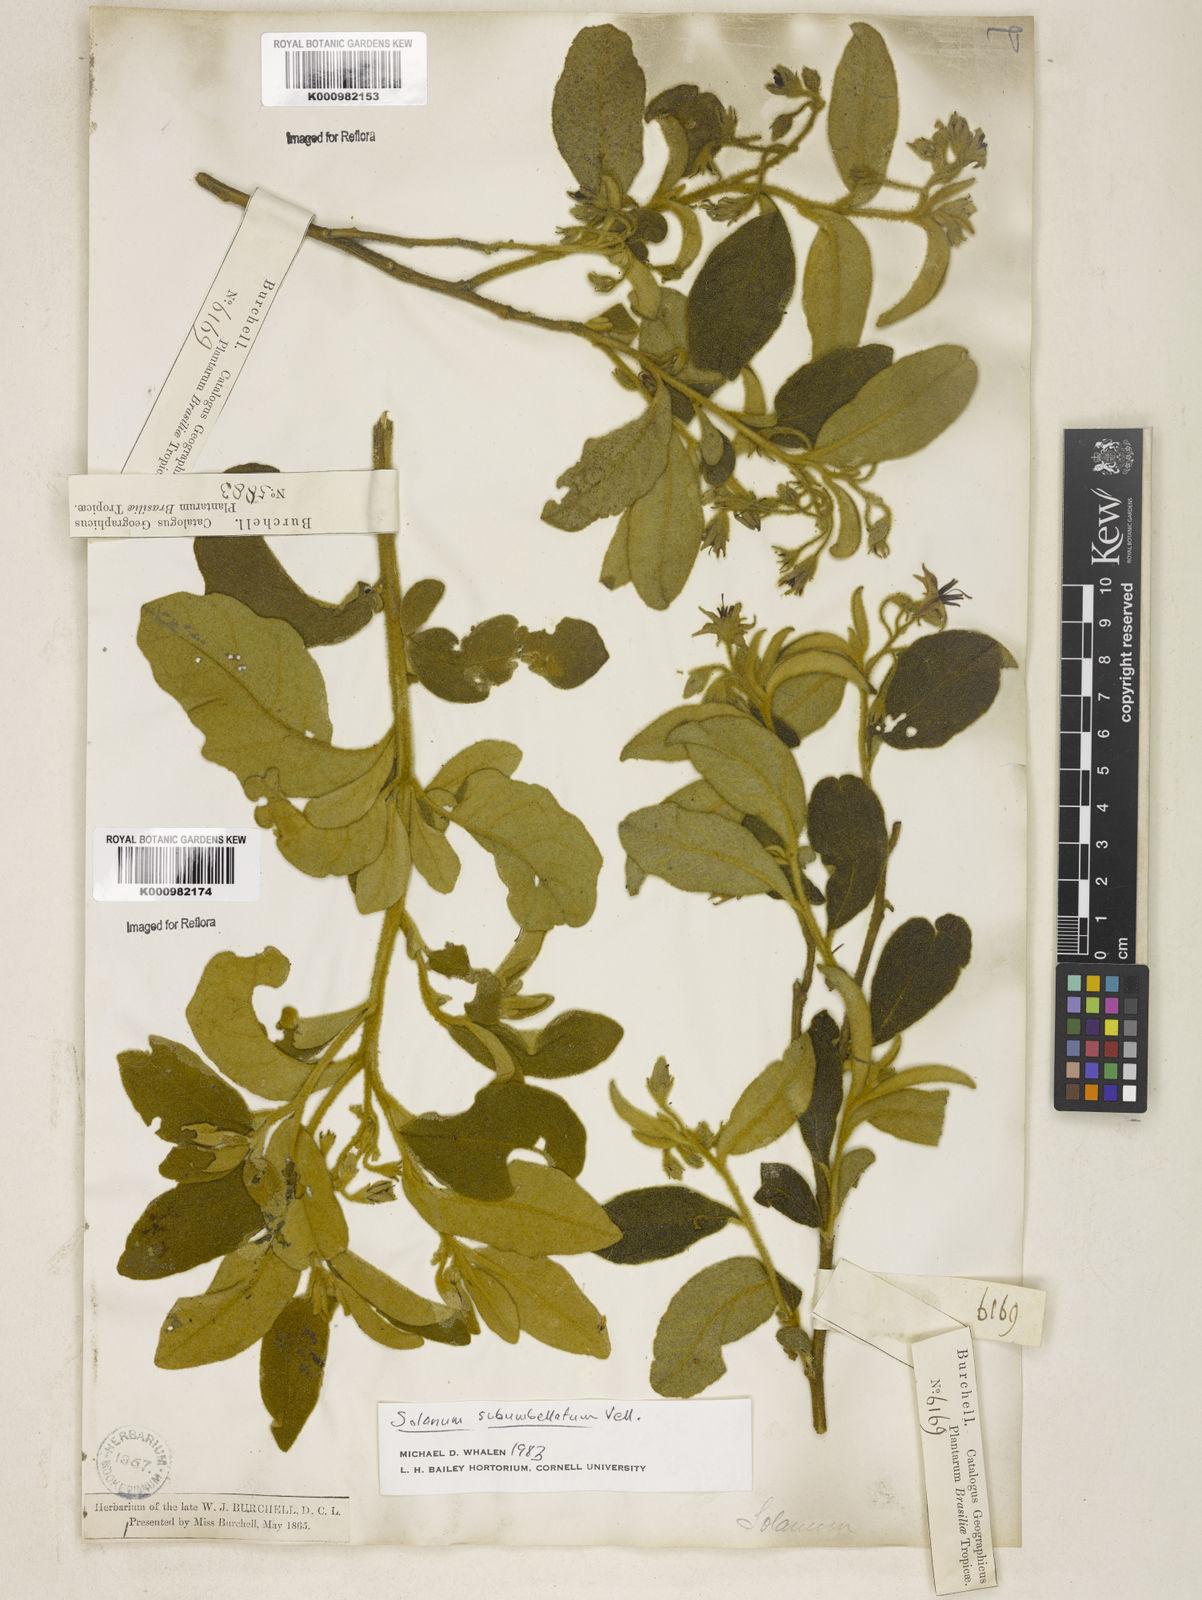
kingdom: Plantae
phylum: Tracheophyta
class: Magnoliopsida
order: Solanales
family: Solanaceae
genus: Solanum
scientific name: Solanum subumbellatum
